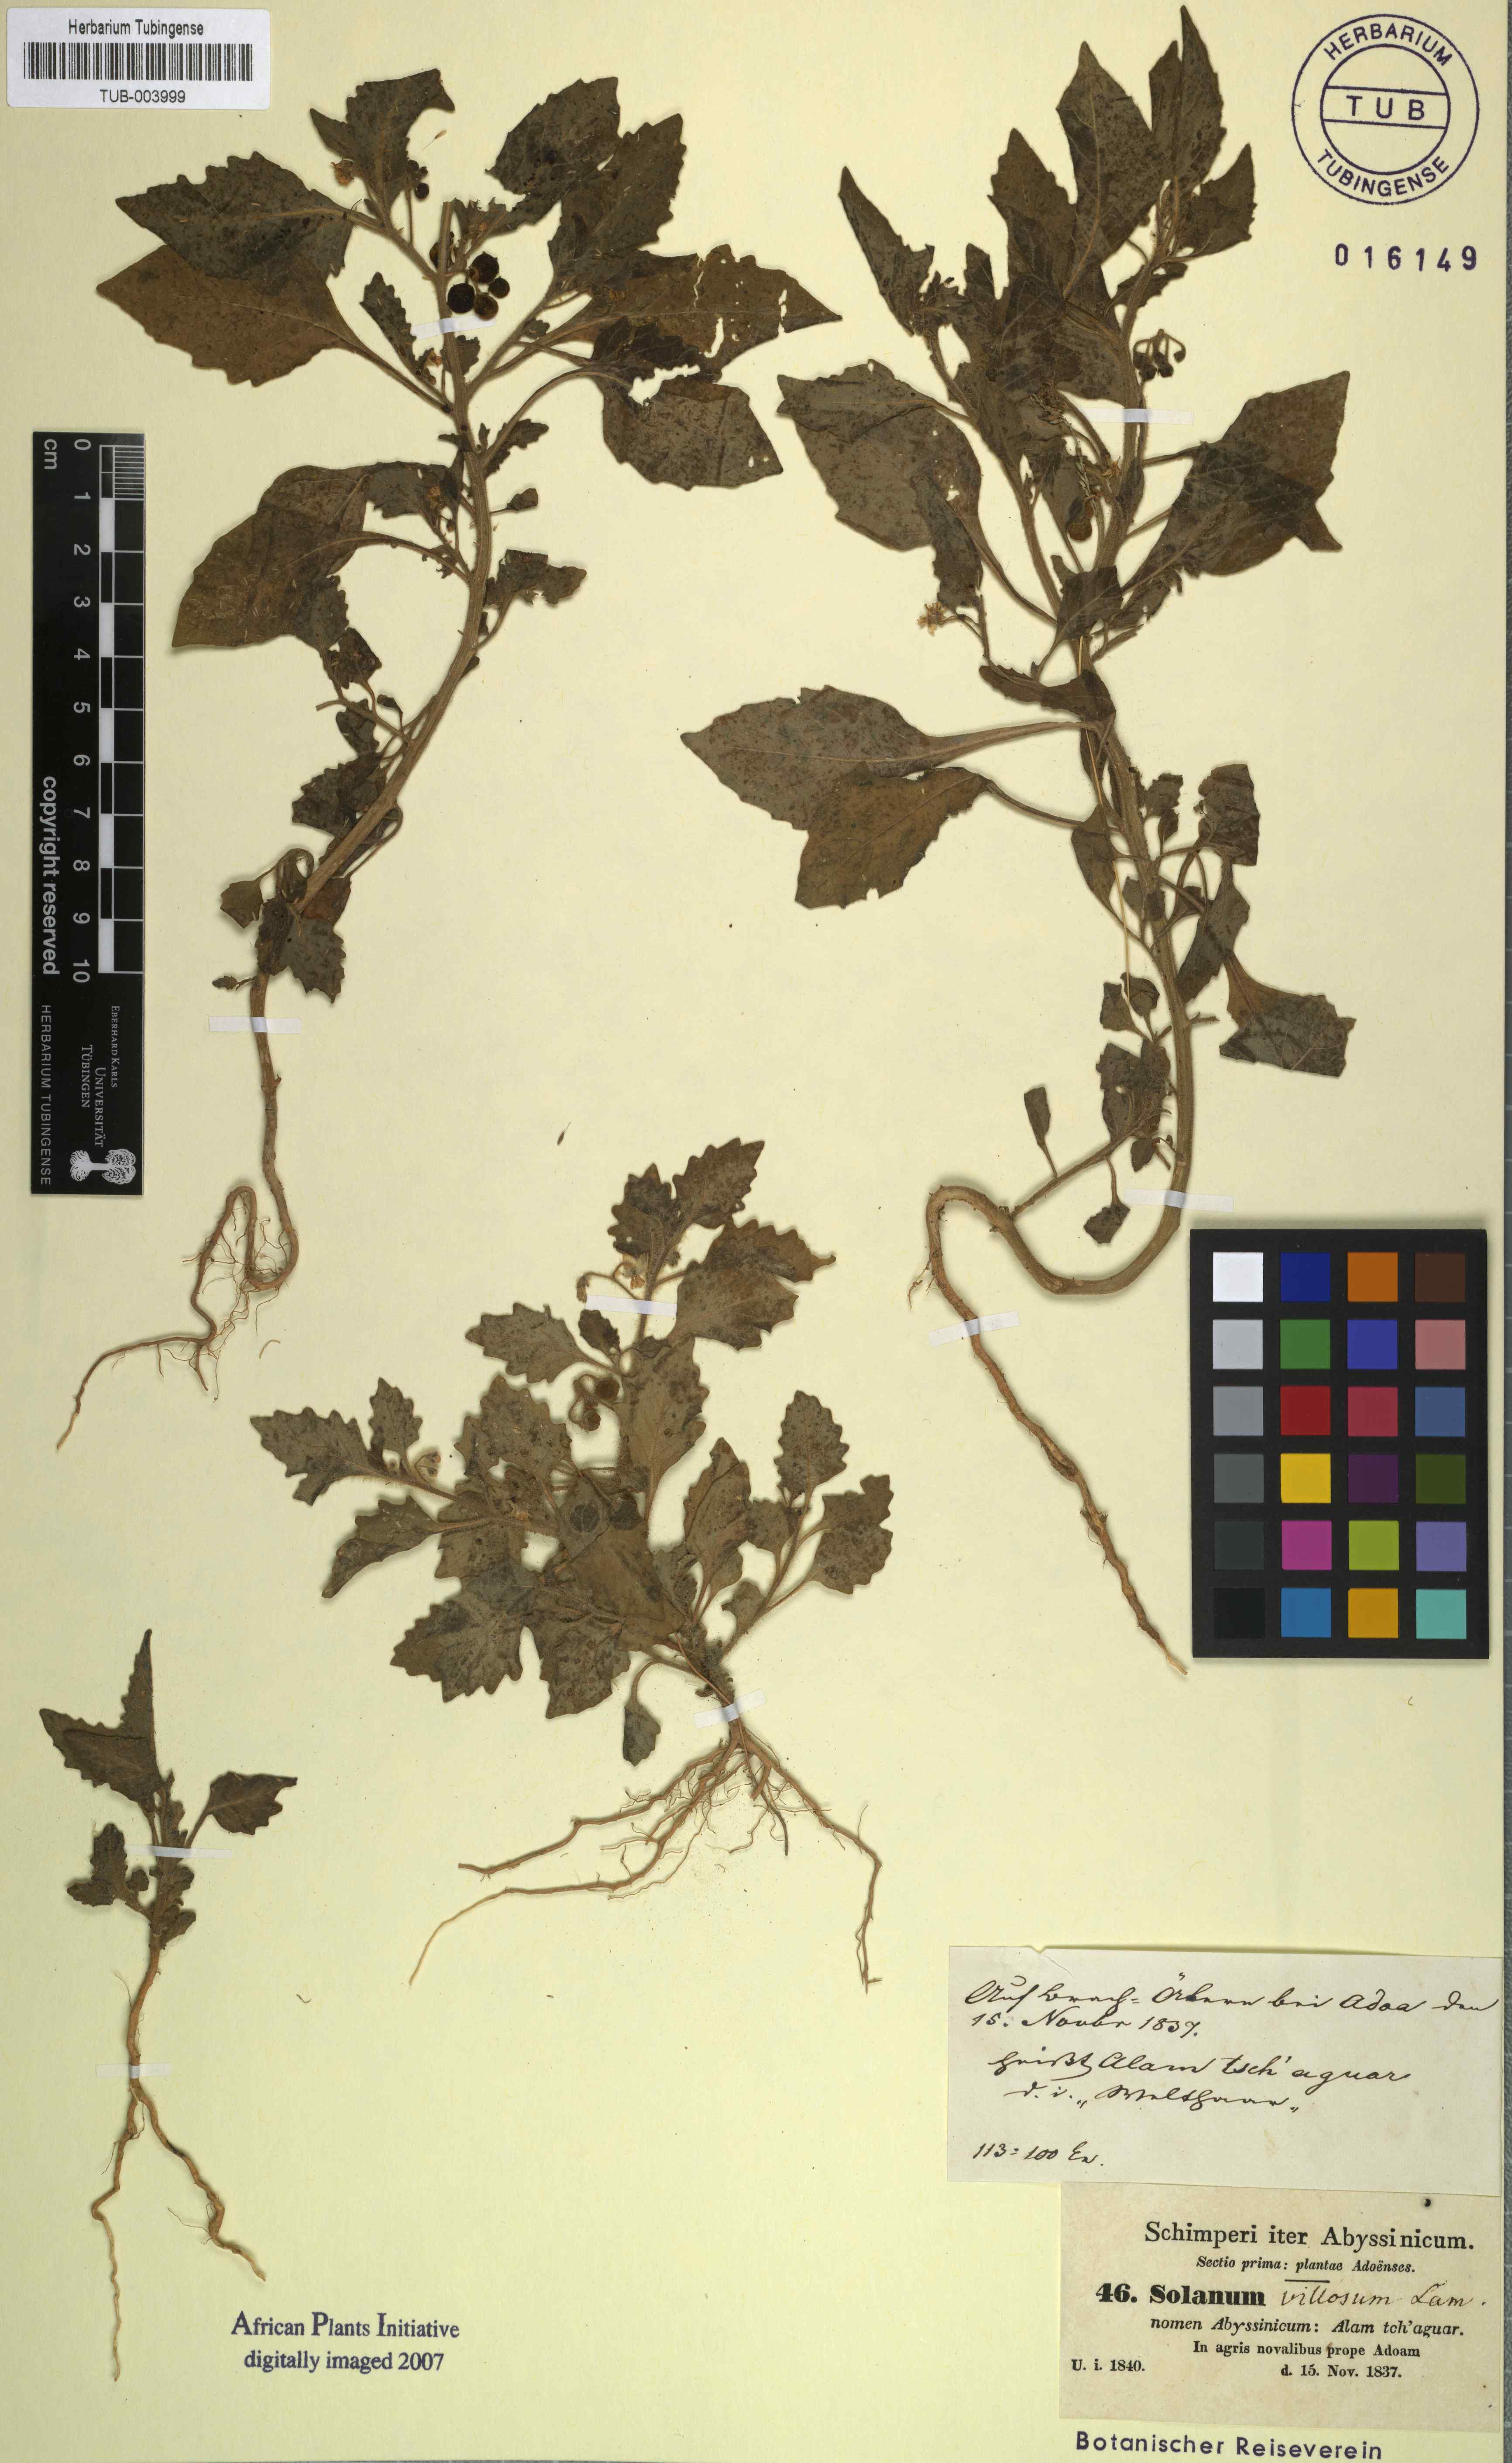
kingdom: Plantae
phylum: Tracheophyta
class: Magnoliopsida
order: Solanales
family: Solanaceae
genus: Solanum
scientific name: Solanum villosum
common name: Red nightshade
